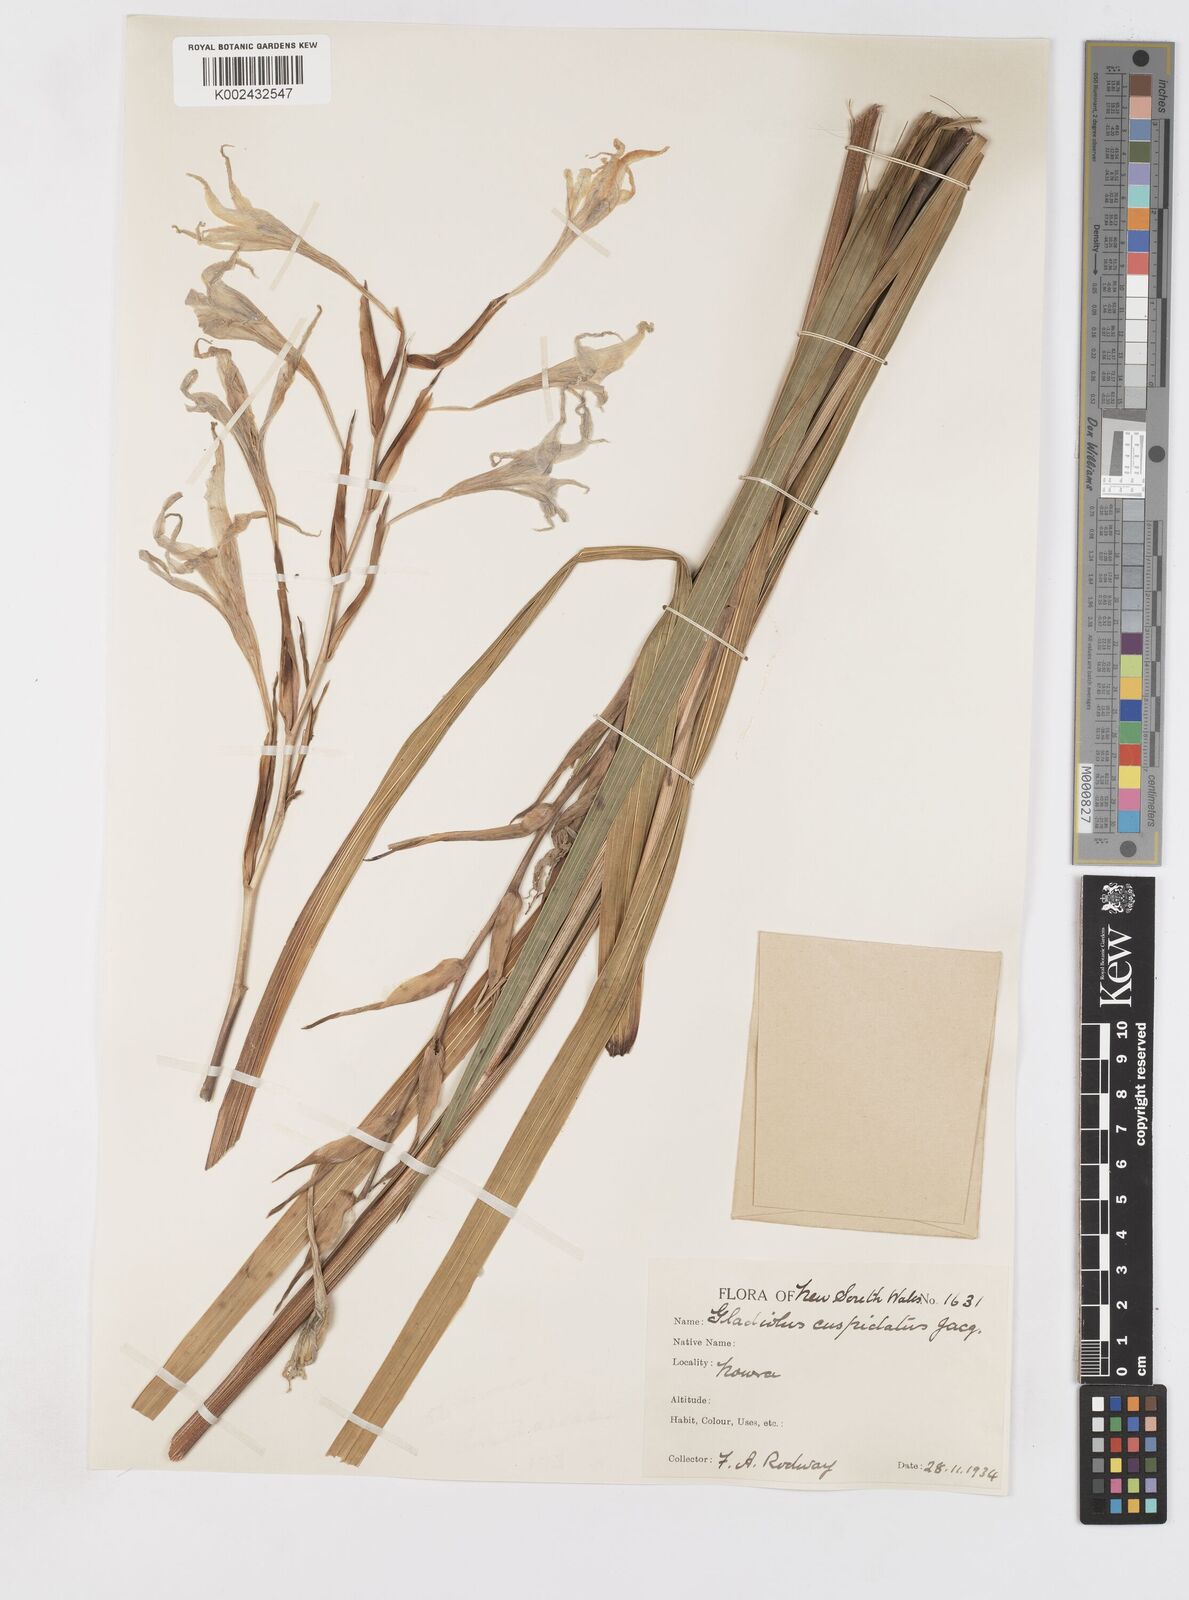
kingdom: Plantae
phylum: Tracheophyta
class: Liliopsida
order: Asparagales
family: Iridaceae
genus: Gladiolus
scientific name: Gladiolus undulatus
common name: Large painted-lady
